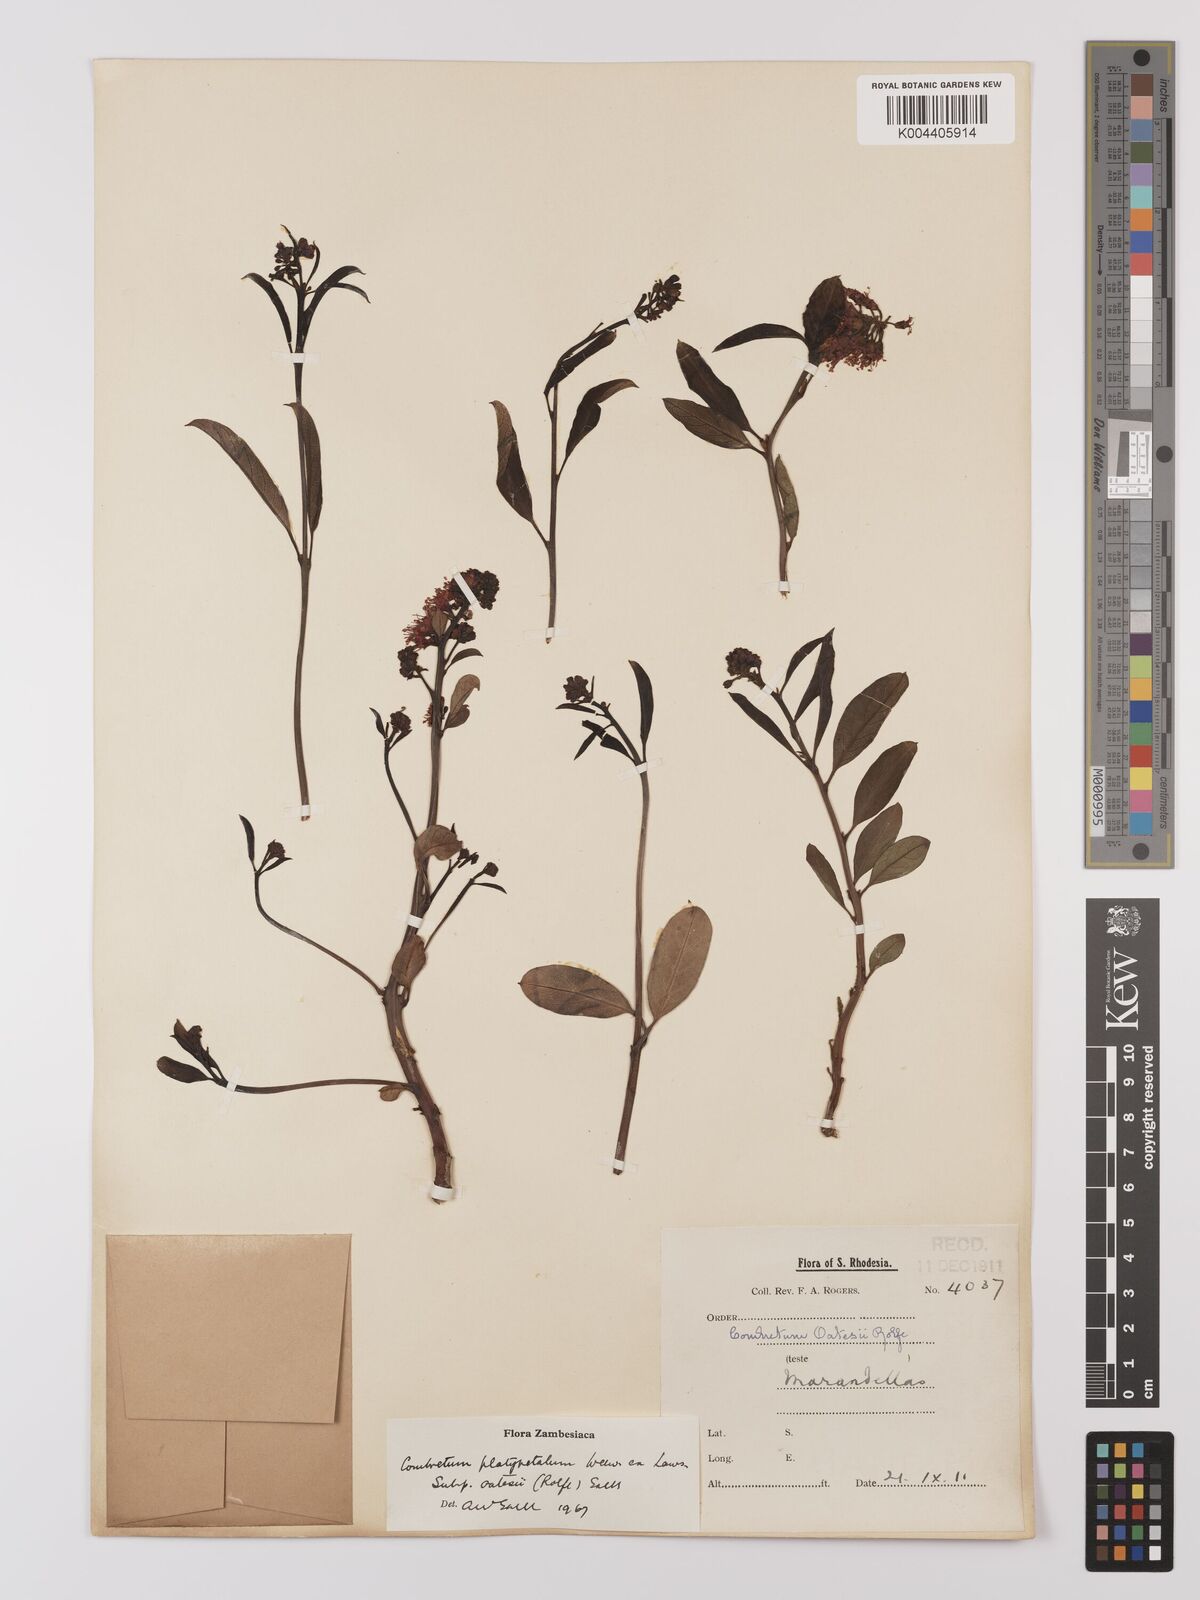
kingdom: Plantae
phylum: Tracheophyta
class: Magnoliopsida
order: Myrtales
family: Combretaceae
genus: Combretum
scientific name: Combretum platypetalum
